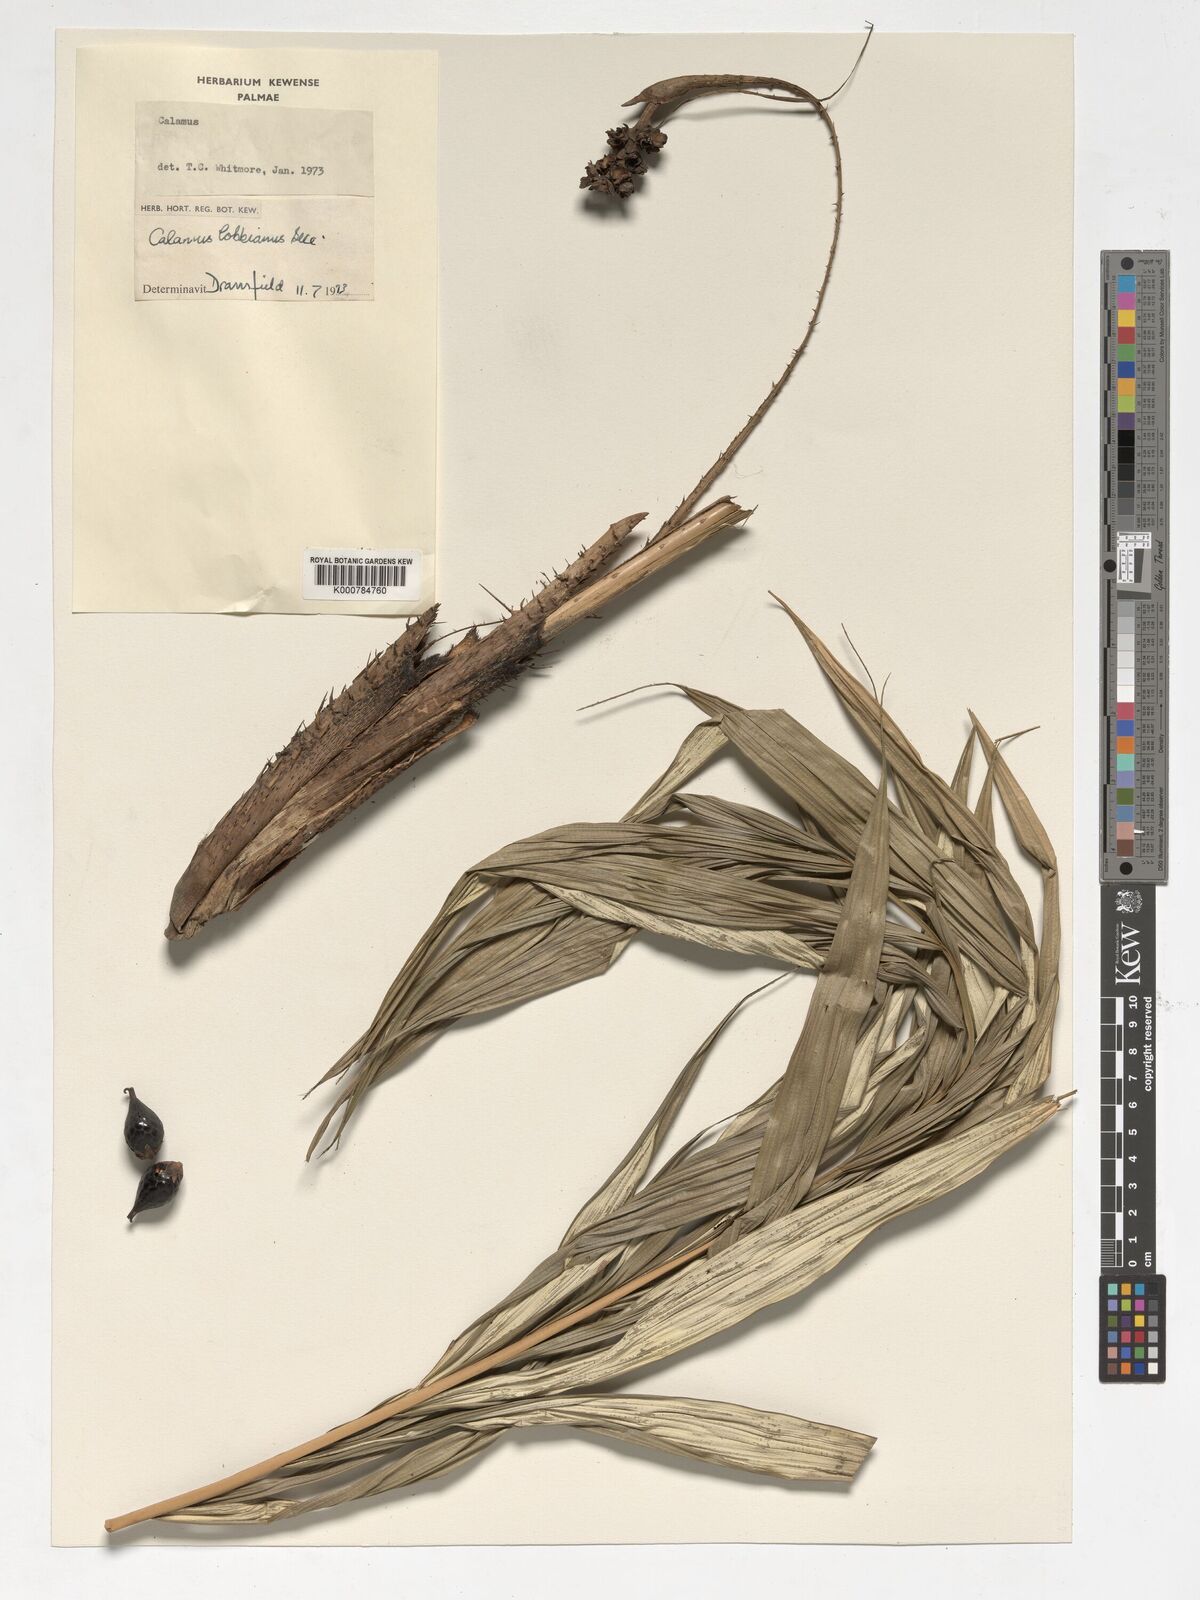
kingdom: Plantae
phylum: Tracheophyta
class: Liliopsida
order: Arecales
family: Arecaceae
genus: Calamus
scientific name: Calamus lobbianus
